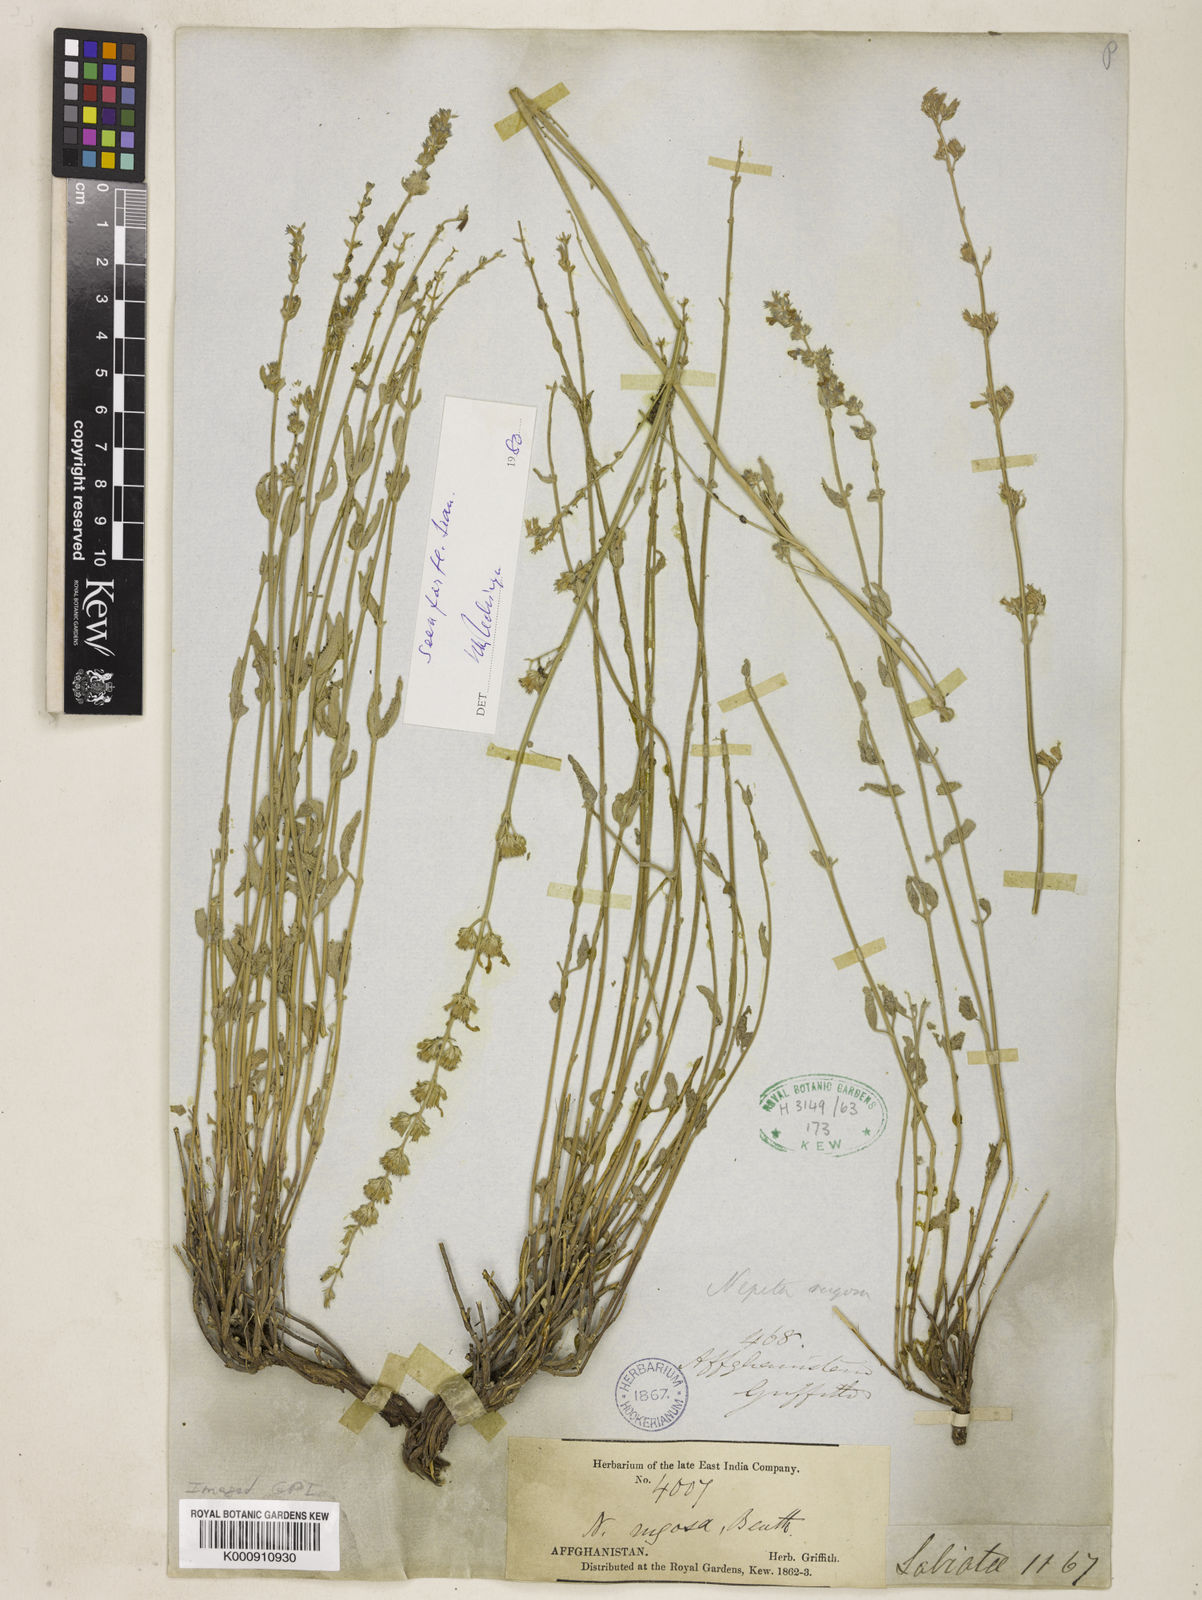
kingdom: Plantae
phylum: Tracheophyta
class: Magnoliopsida
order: Lamiales
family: Lamiaceae
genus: Nepeta
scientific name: Nepeta rugosa
